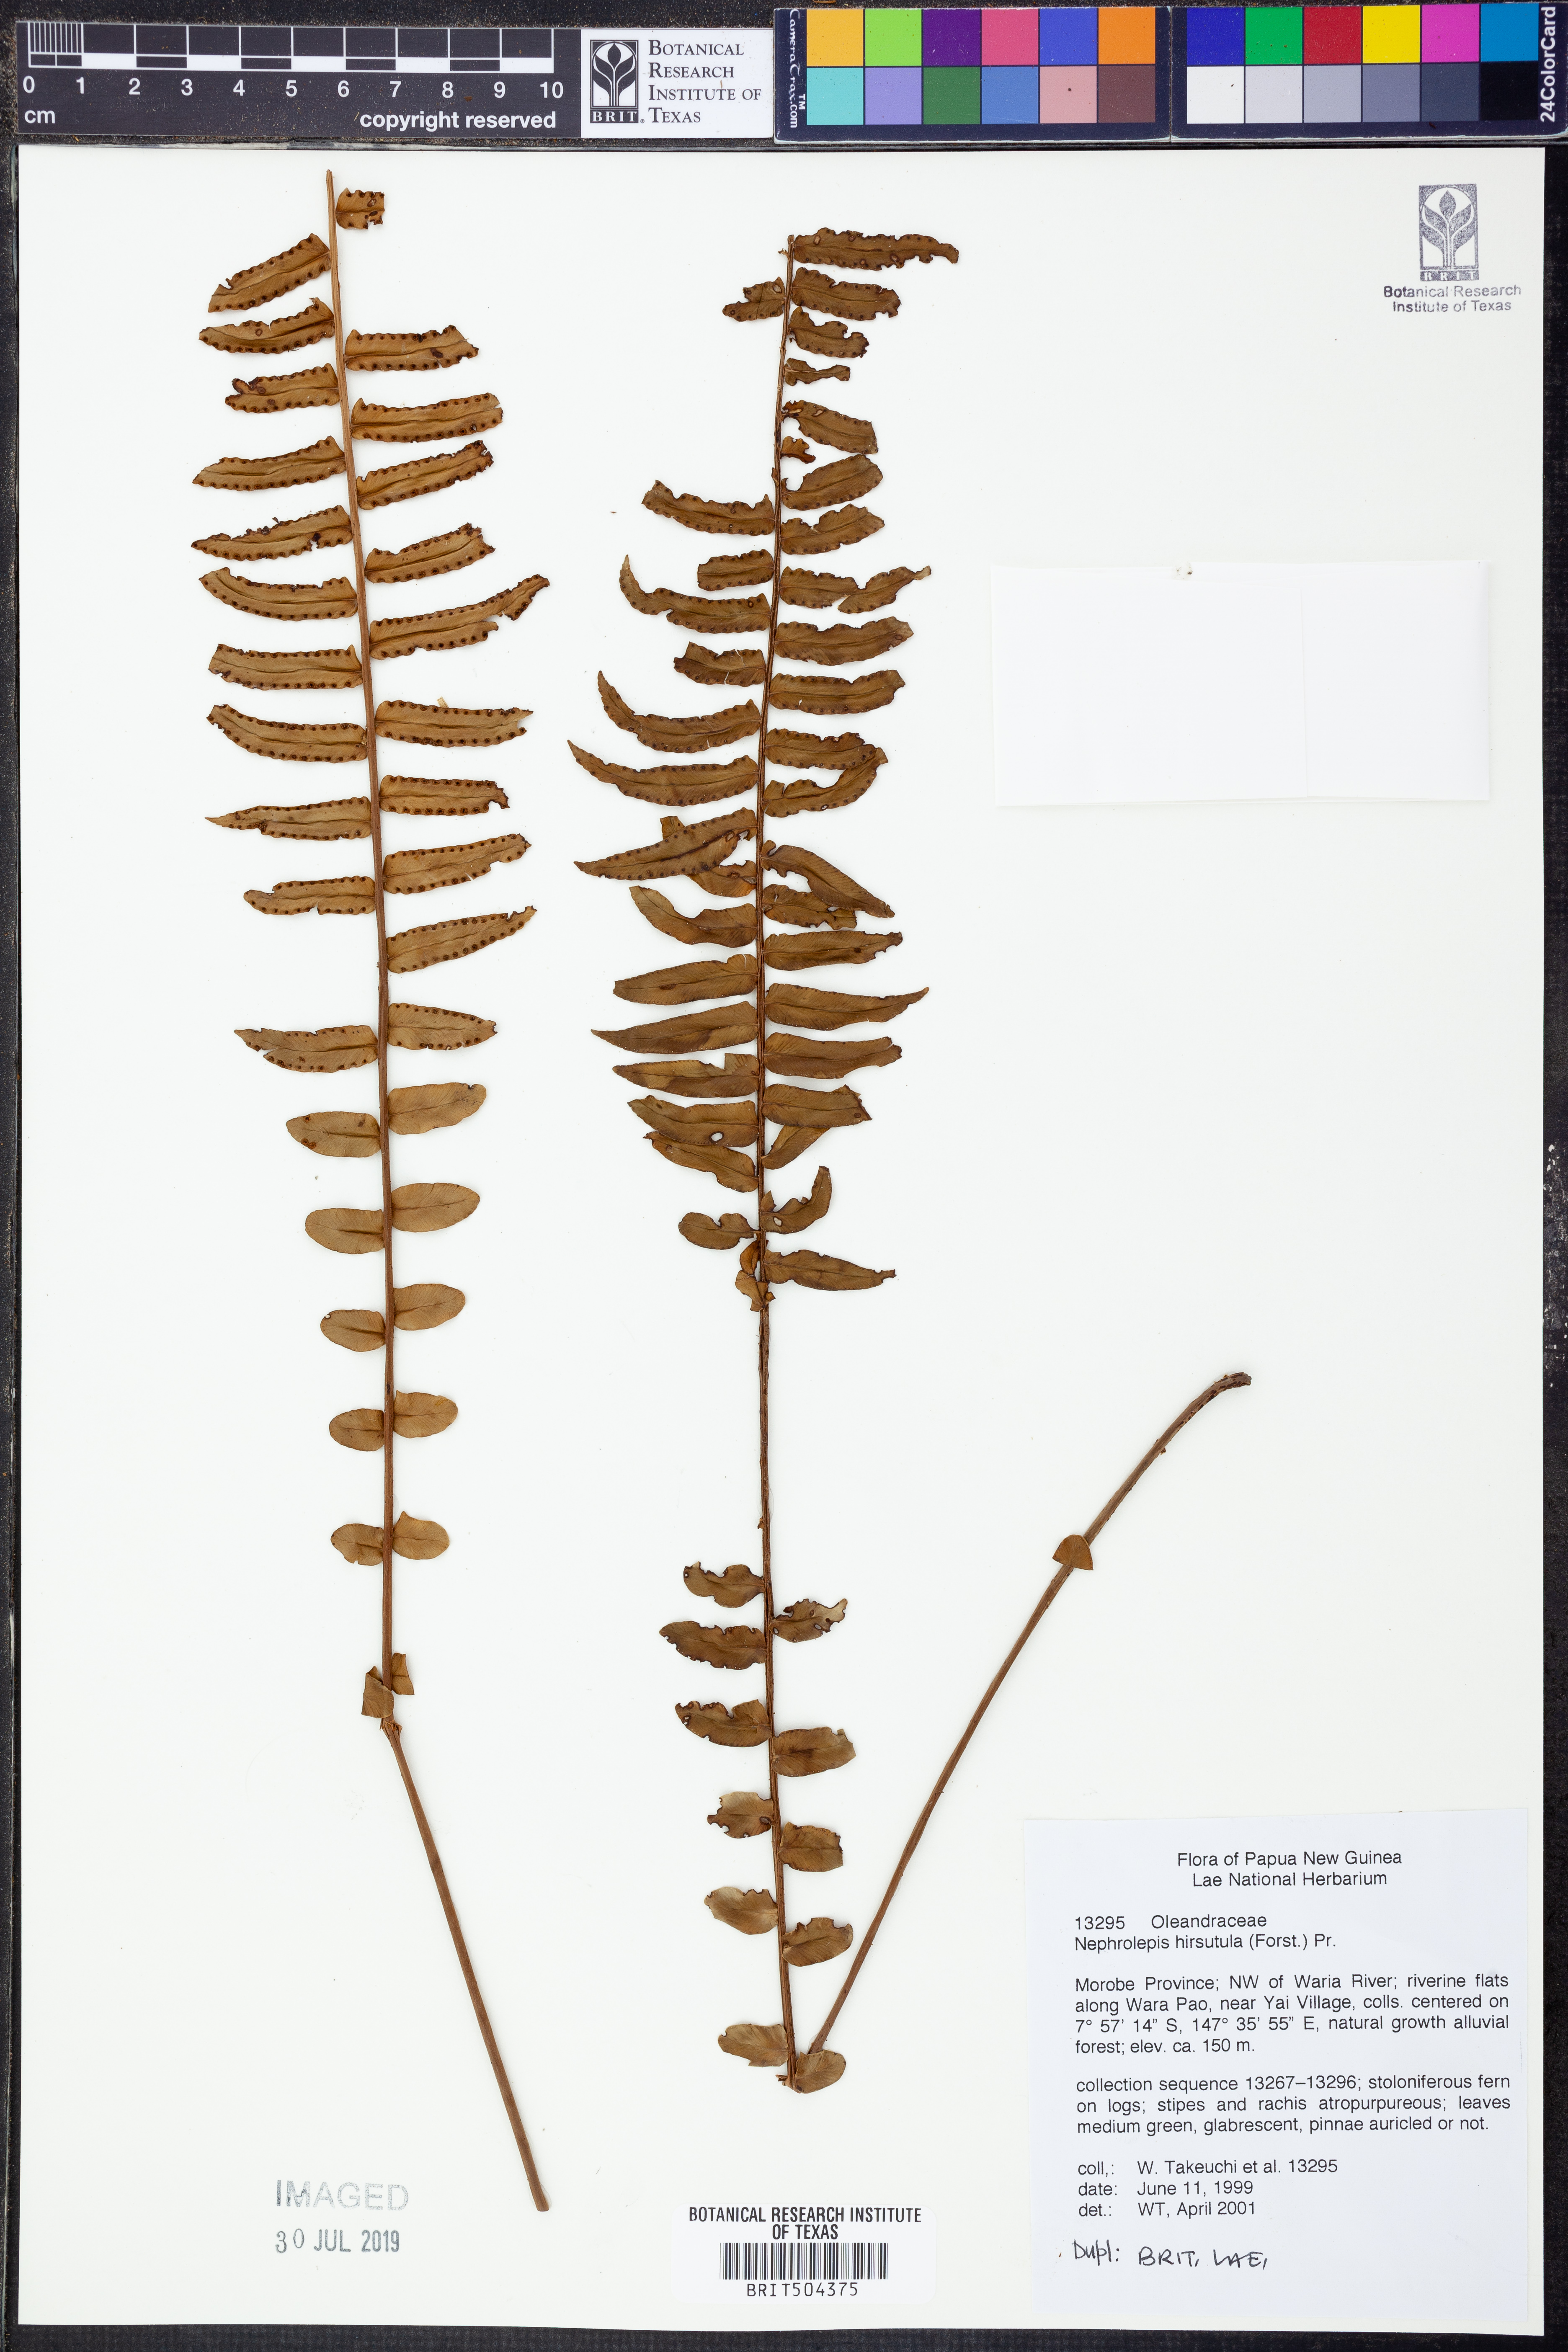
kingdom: Plantae
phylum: Tracheophyta
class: Polypodiopsida
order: Polypodiales
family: Nephrolepidaceae
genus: Nephrolepis
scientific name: Nephrolepis hirsutula
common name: Asian sword fern
